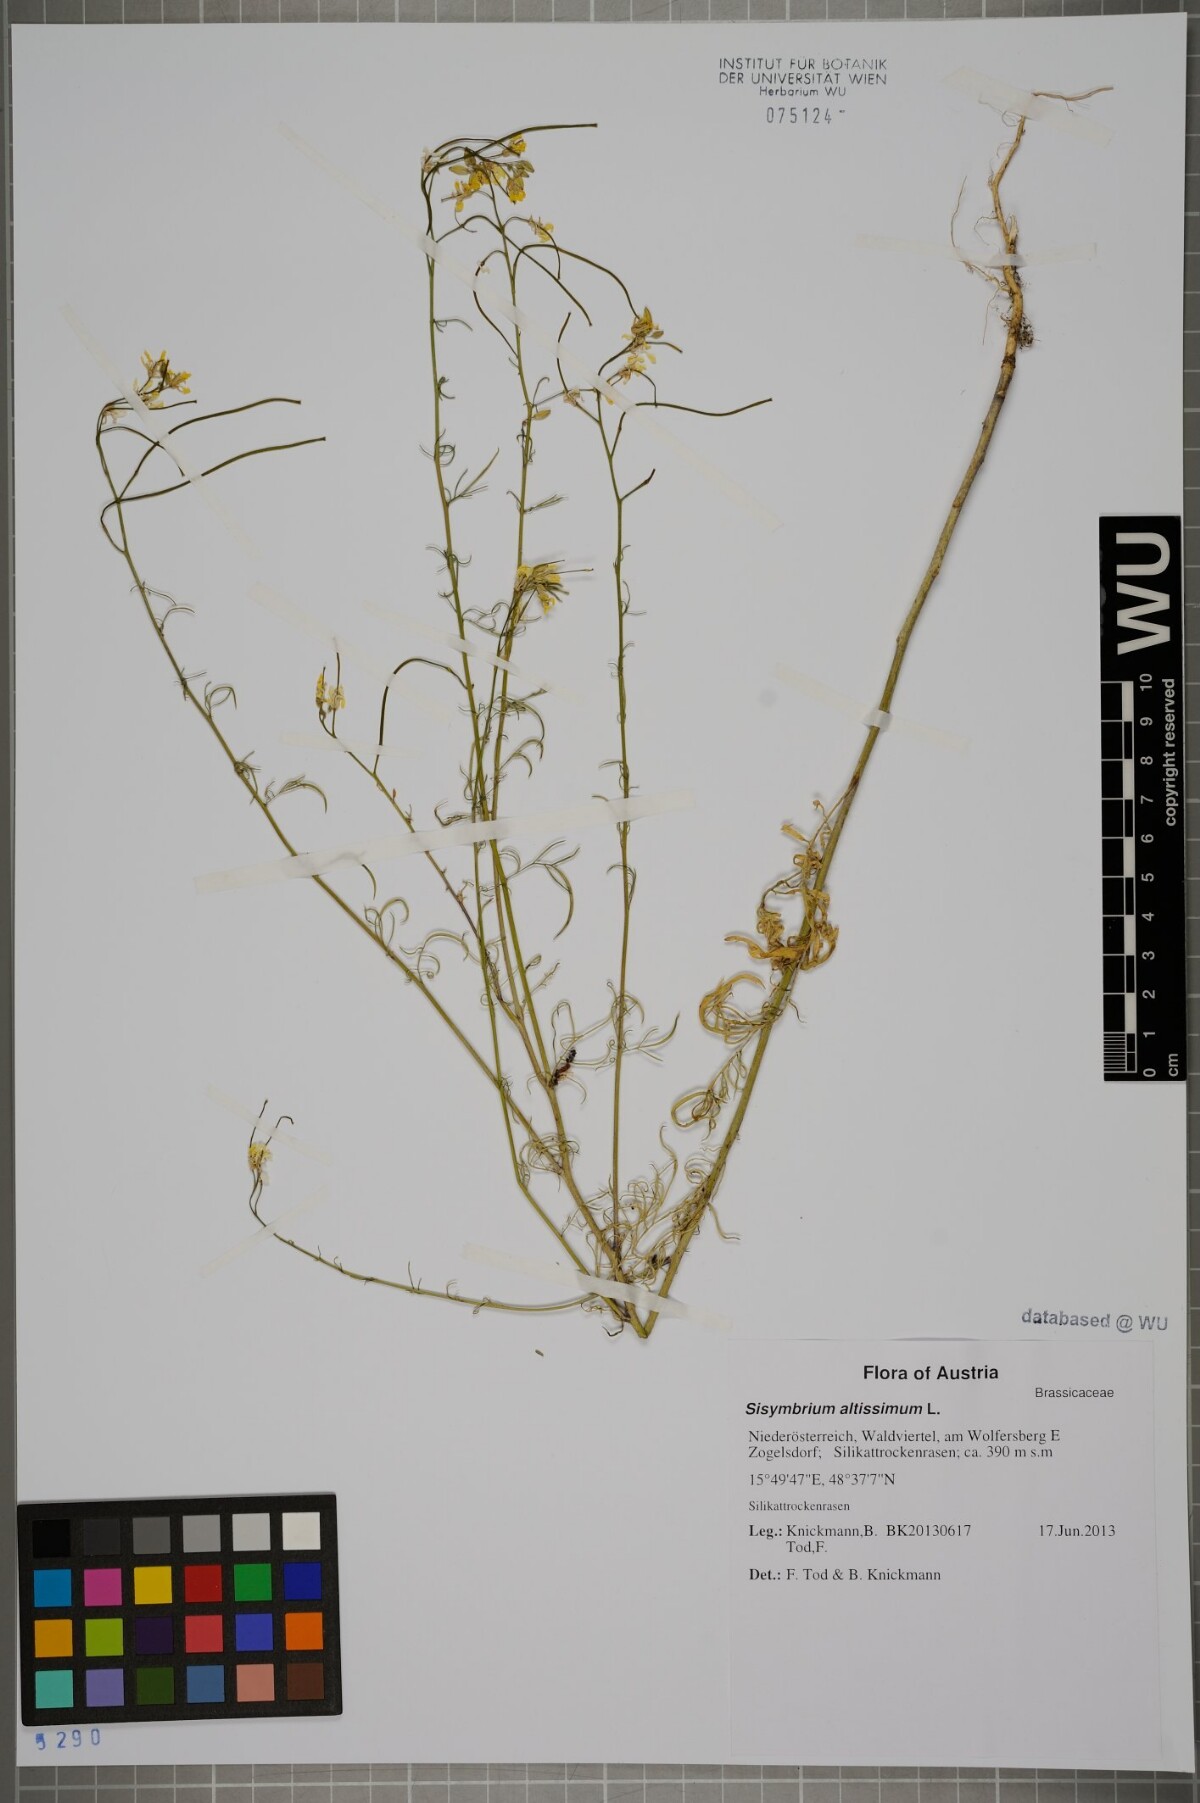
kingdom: Plantae
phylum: Tracheophyta
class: Magnoliopsida
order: Brassicales
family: Brassicaceae
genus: Sisymbrium
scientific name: Sisymbrium altissimum
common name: Tall rocket
